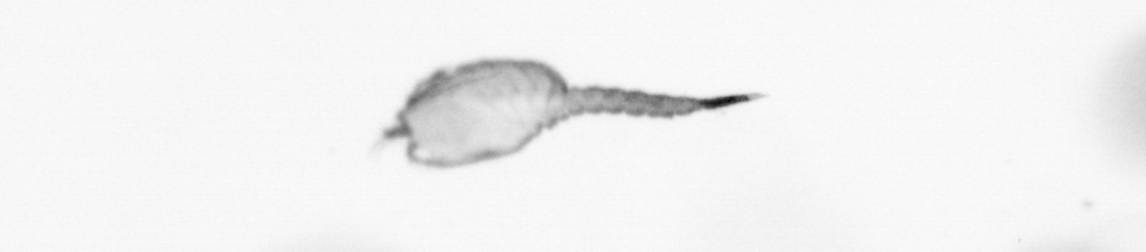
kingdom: Animalia
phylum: Arthropoda
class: Copepoda
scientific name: Copepoda
